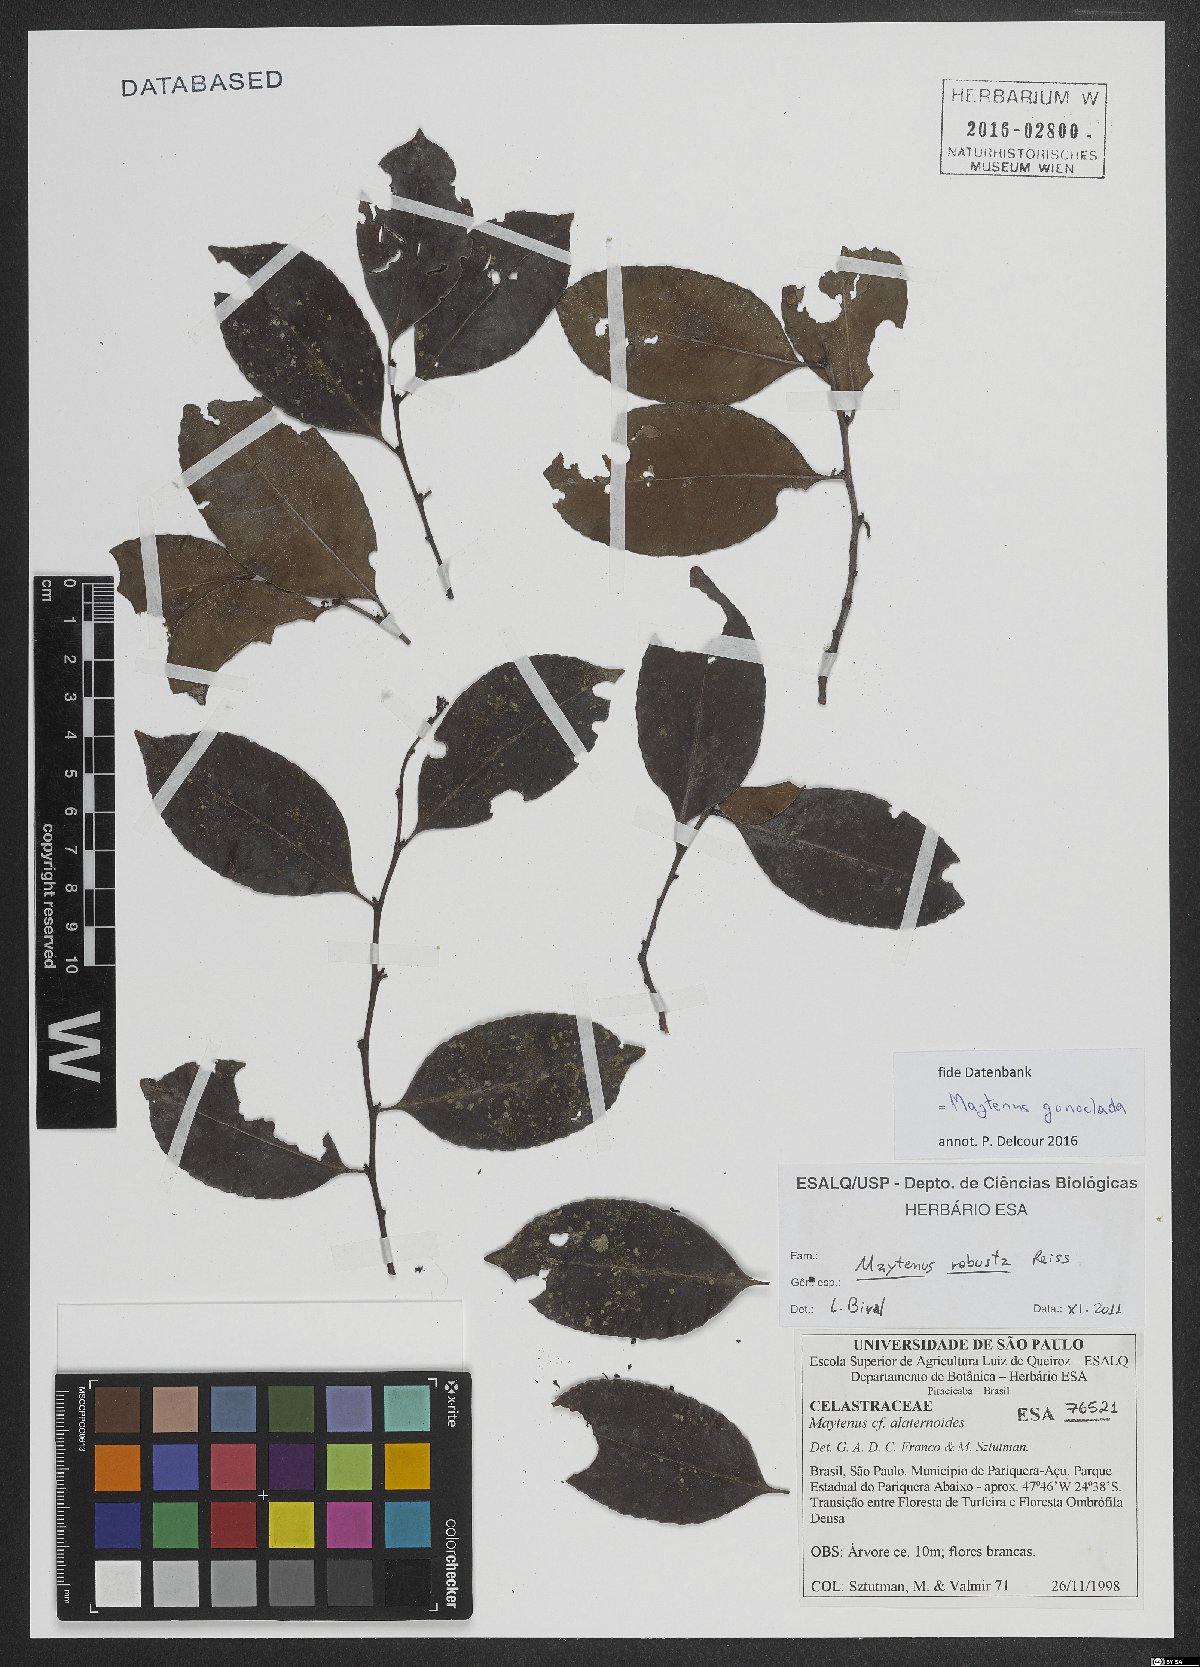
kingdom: Plantae
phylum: Tracheophyta
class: Magnoliopsida
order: Celastrales
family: Celastraceae
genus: Monteverdia
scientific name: Monteverdia gonoclada
